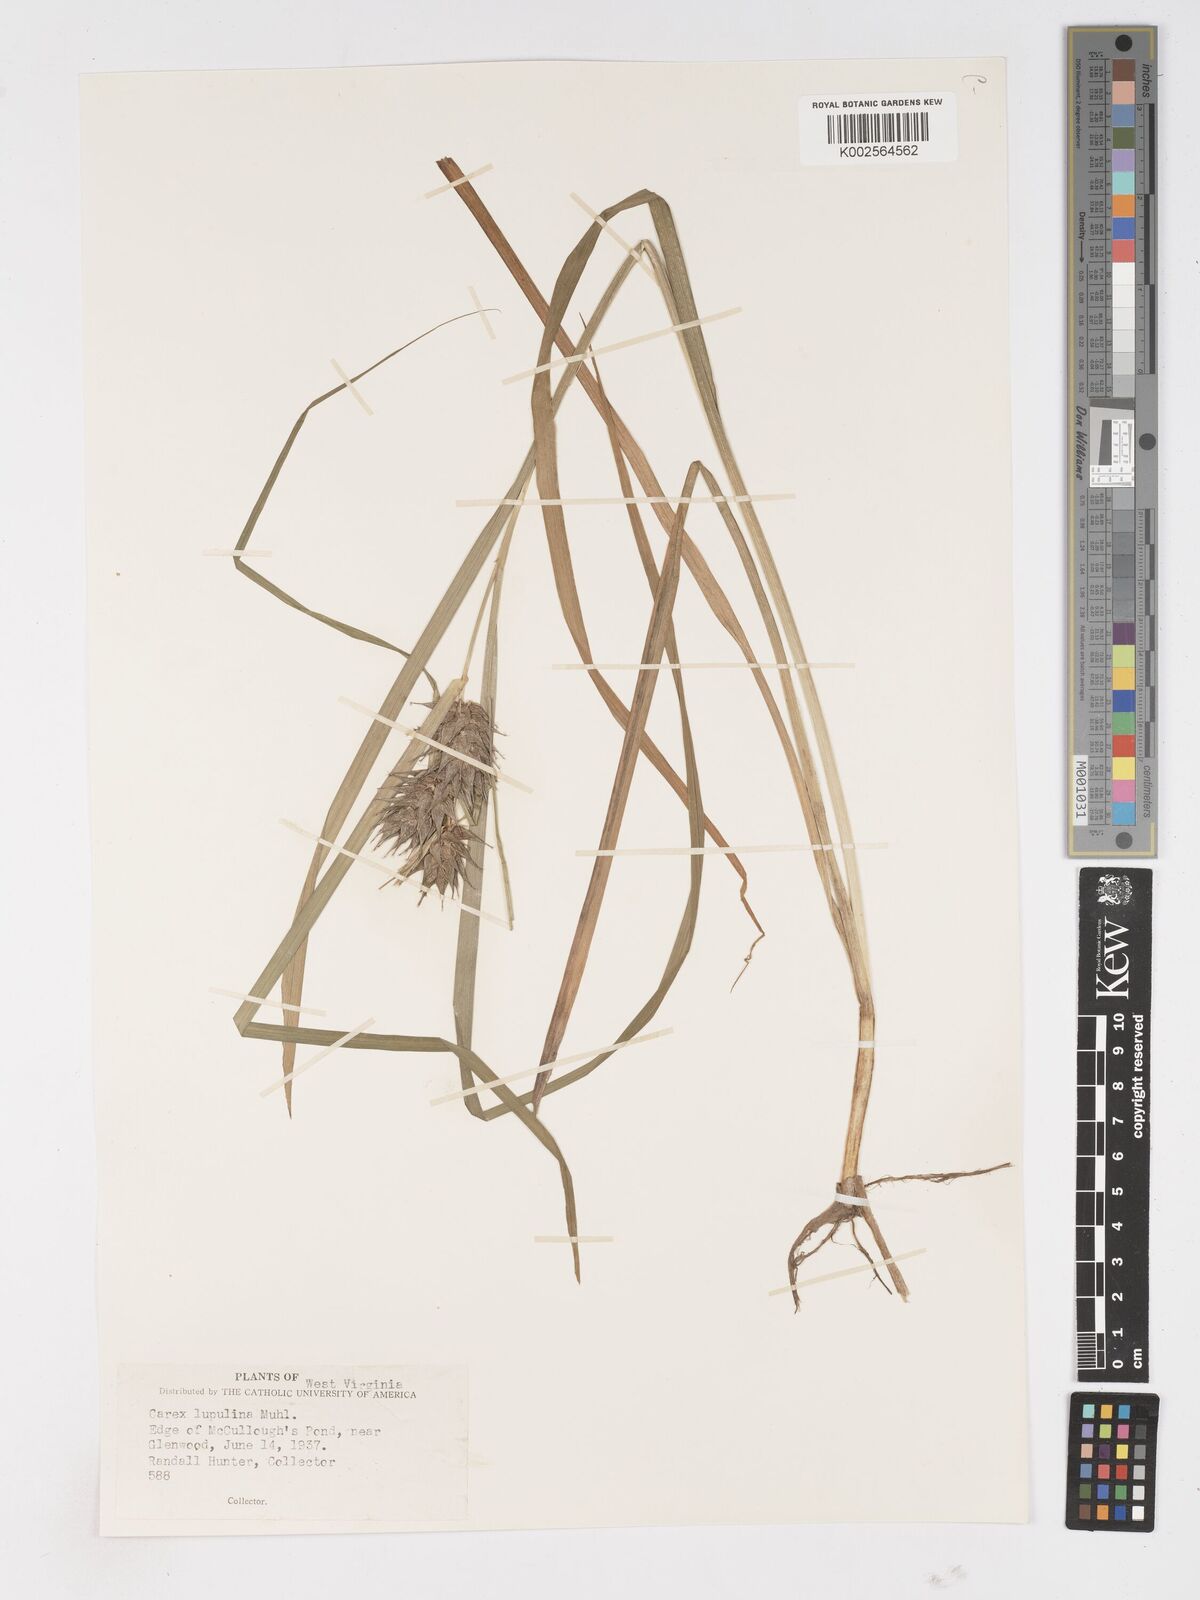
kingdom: Plantae
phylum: Tracheophyta
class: Liliopsida
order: Poales
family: Cyperaceae
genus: Carex
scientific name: Carex lupulina
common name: Hop sedge
